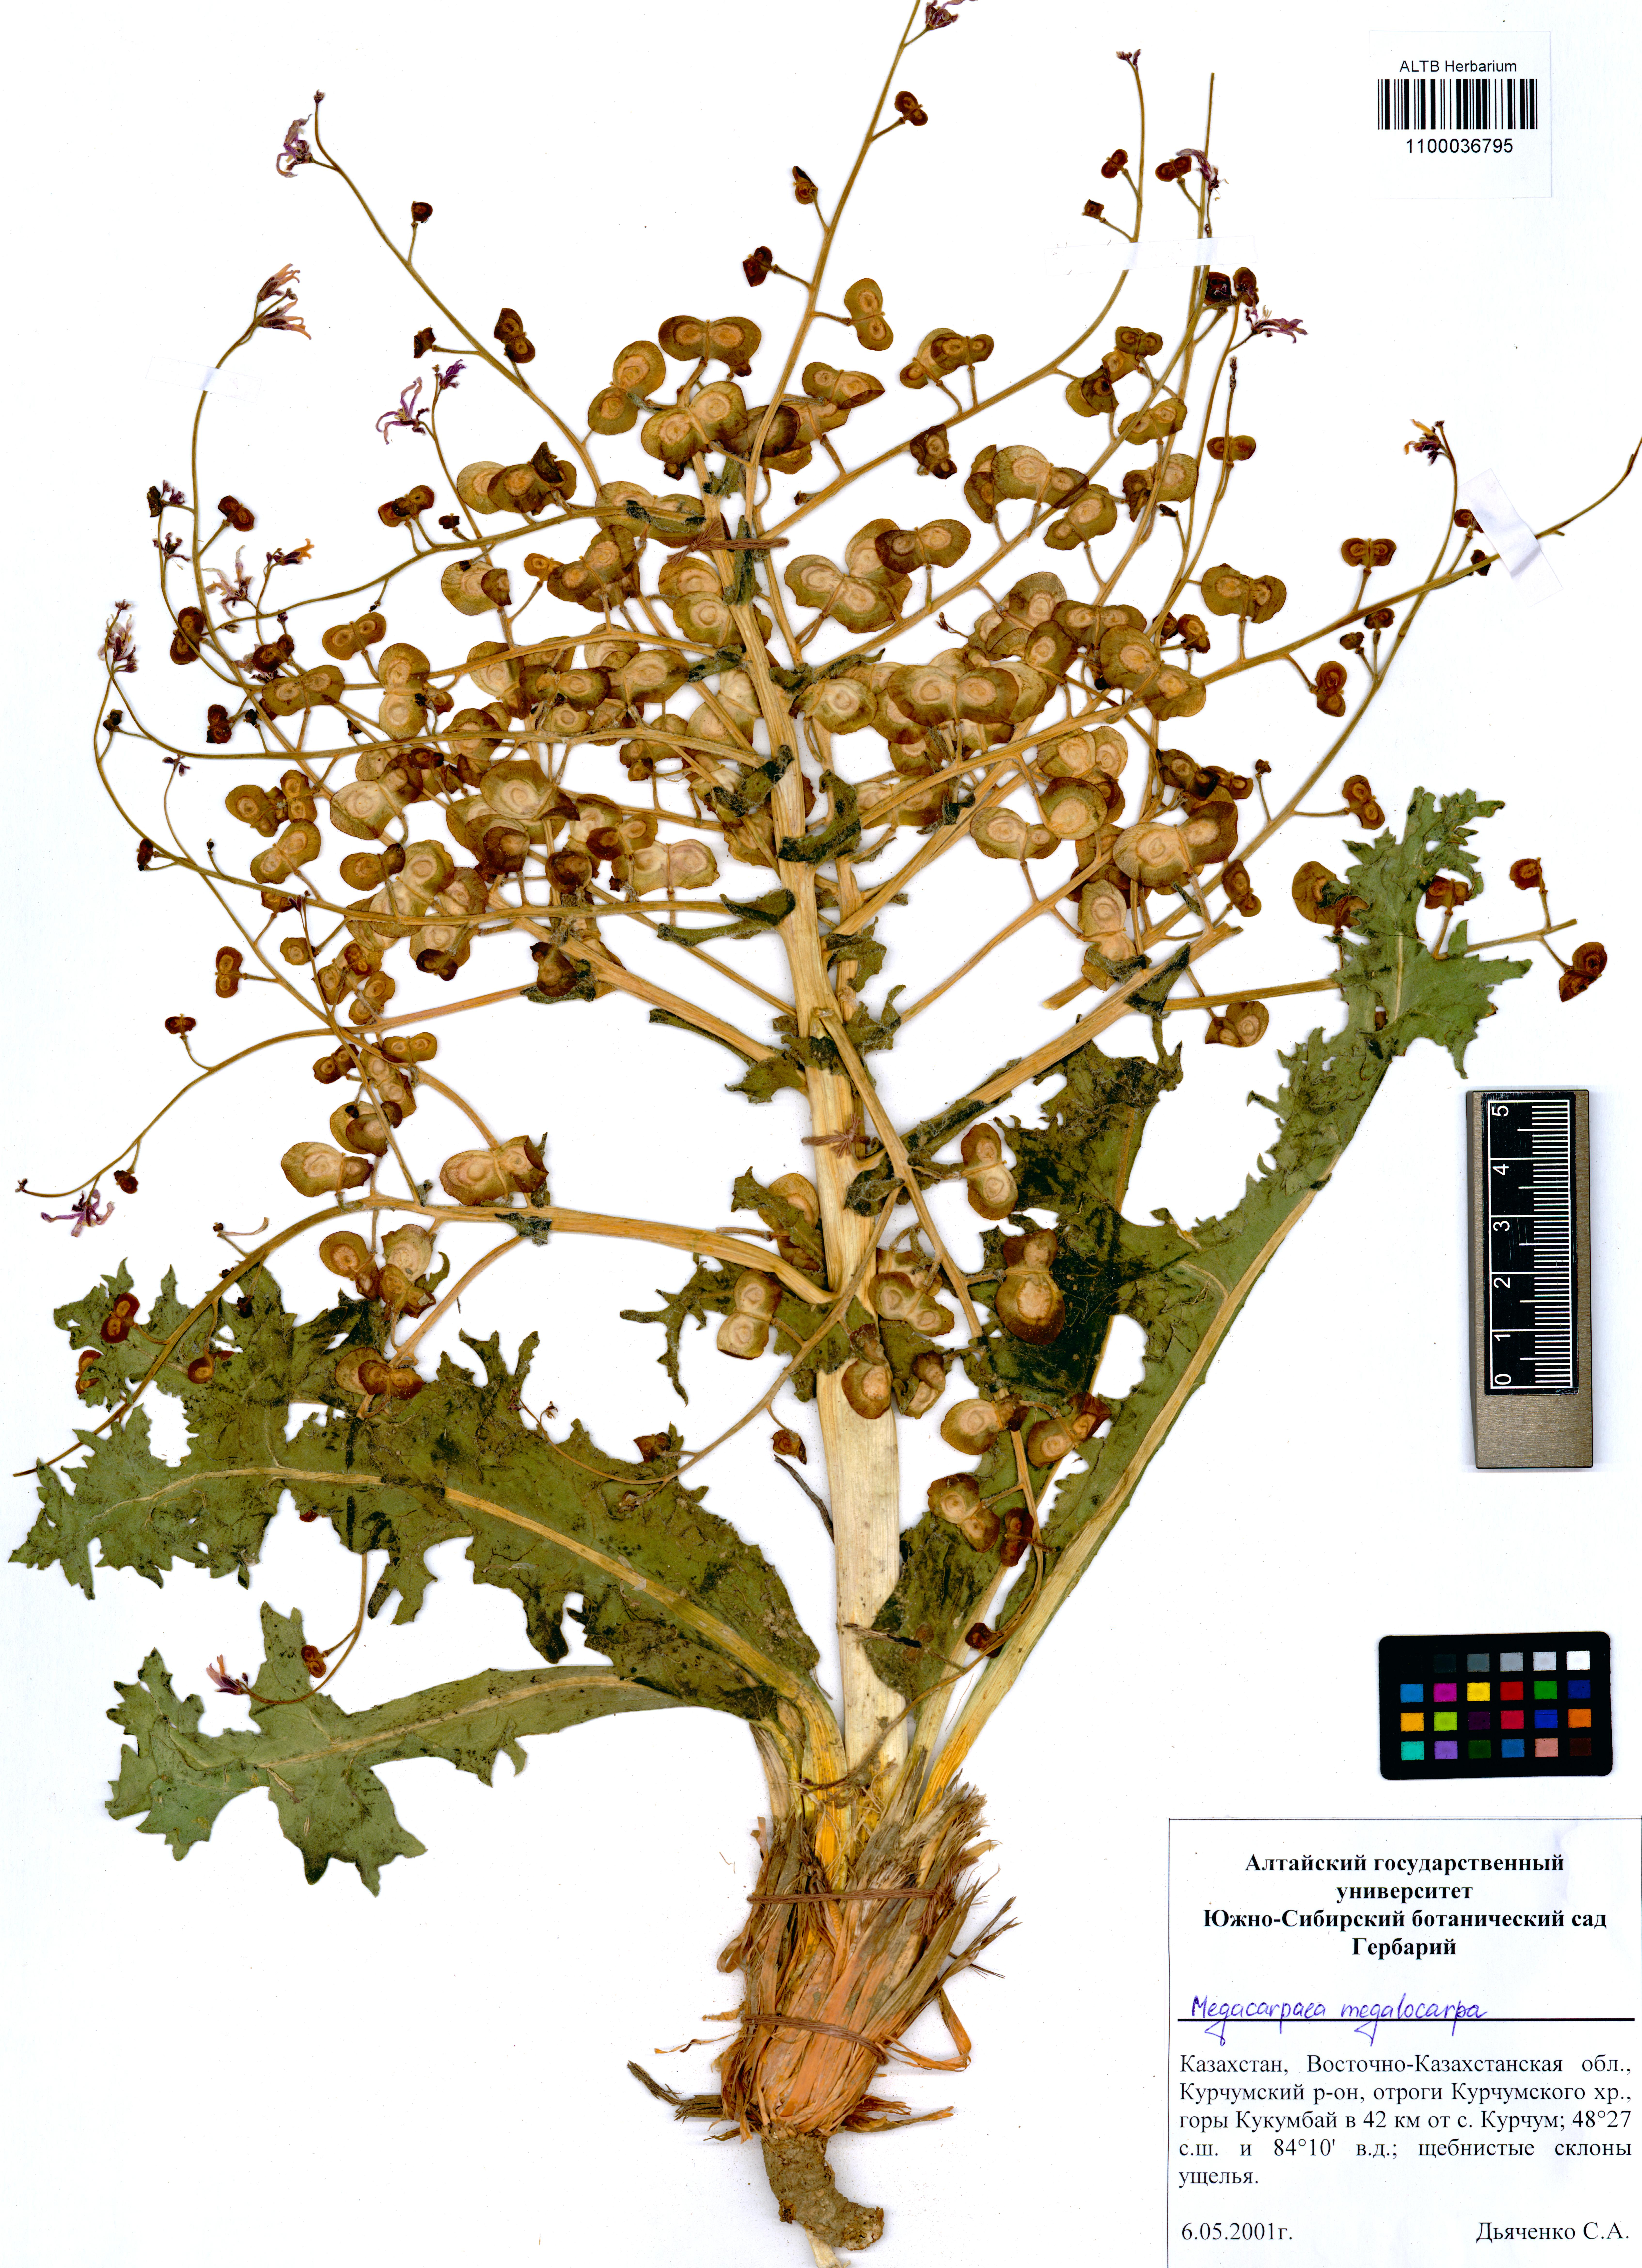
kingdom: Plantae
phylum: Tracheophyta
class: Magnoliopsida
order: Brassicales
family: Brassicaceae
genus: Megacarpaea
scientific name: Megacarpaea megalocarpa
